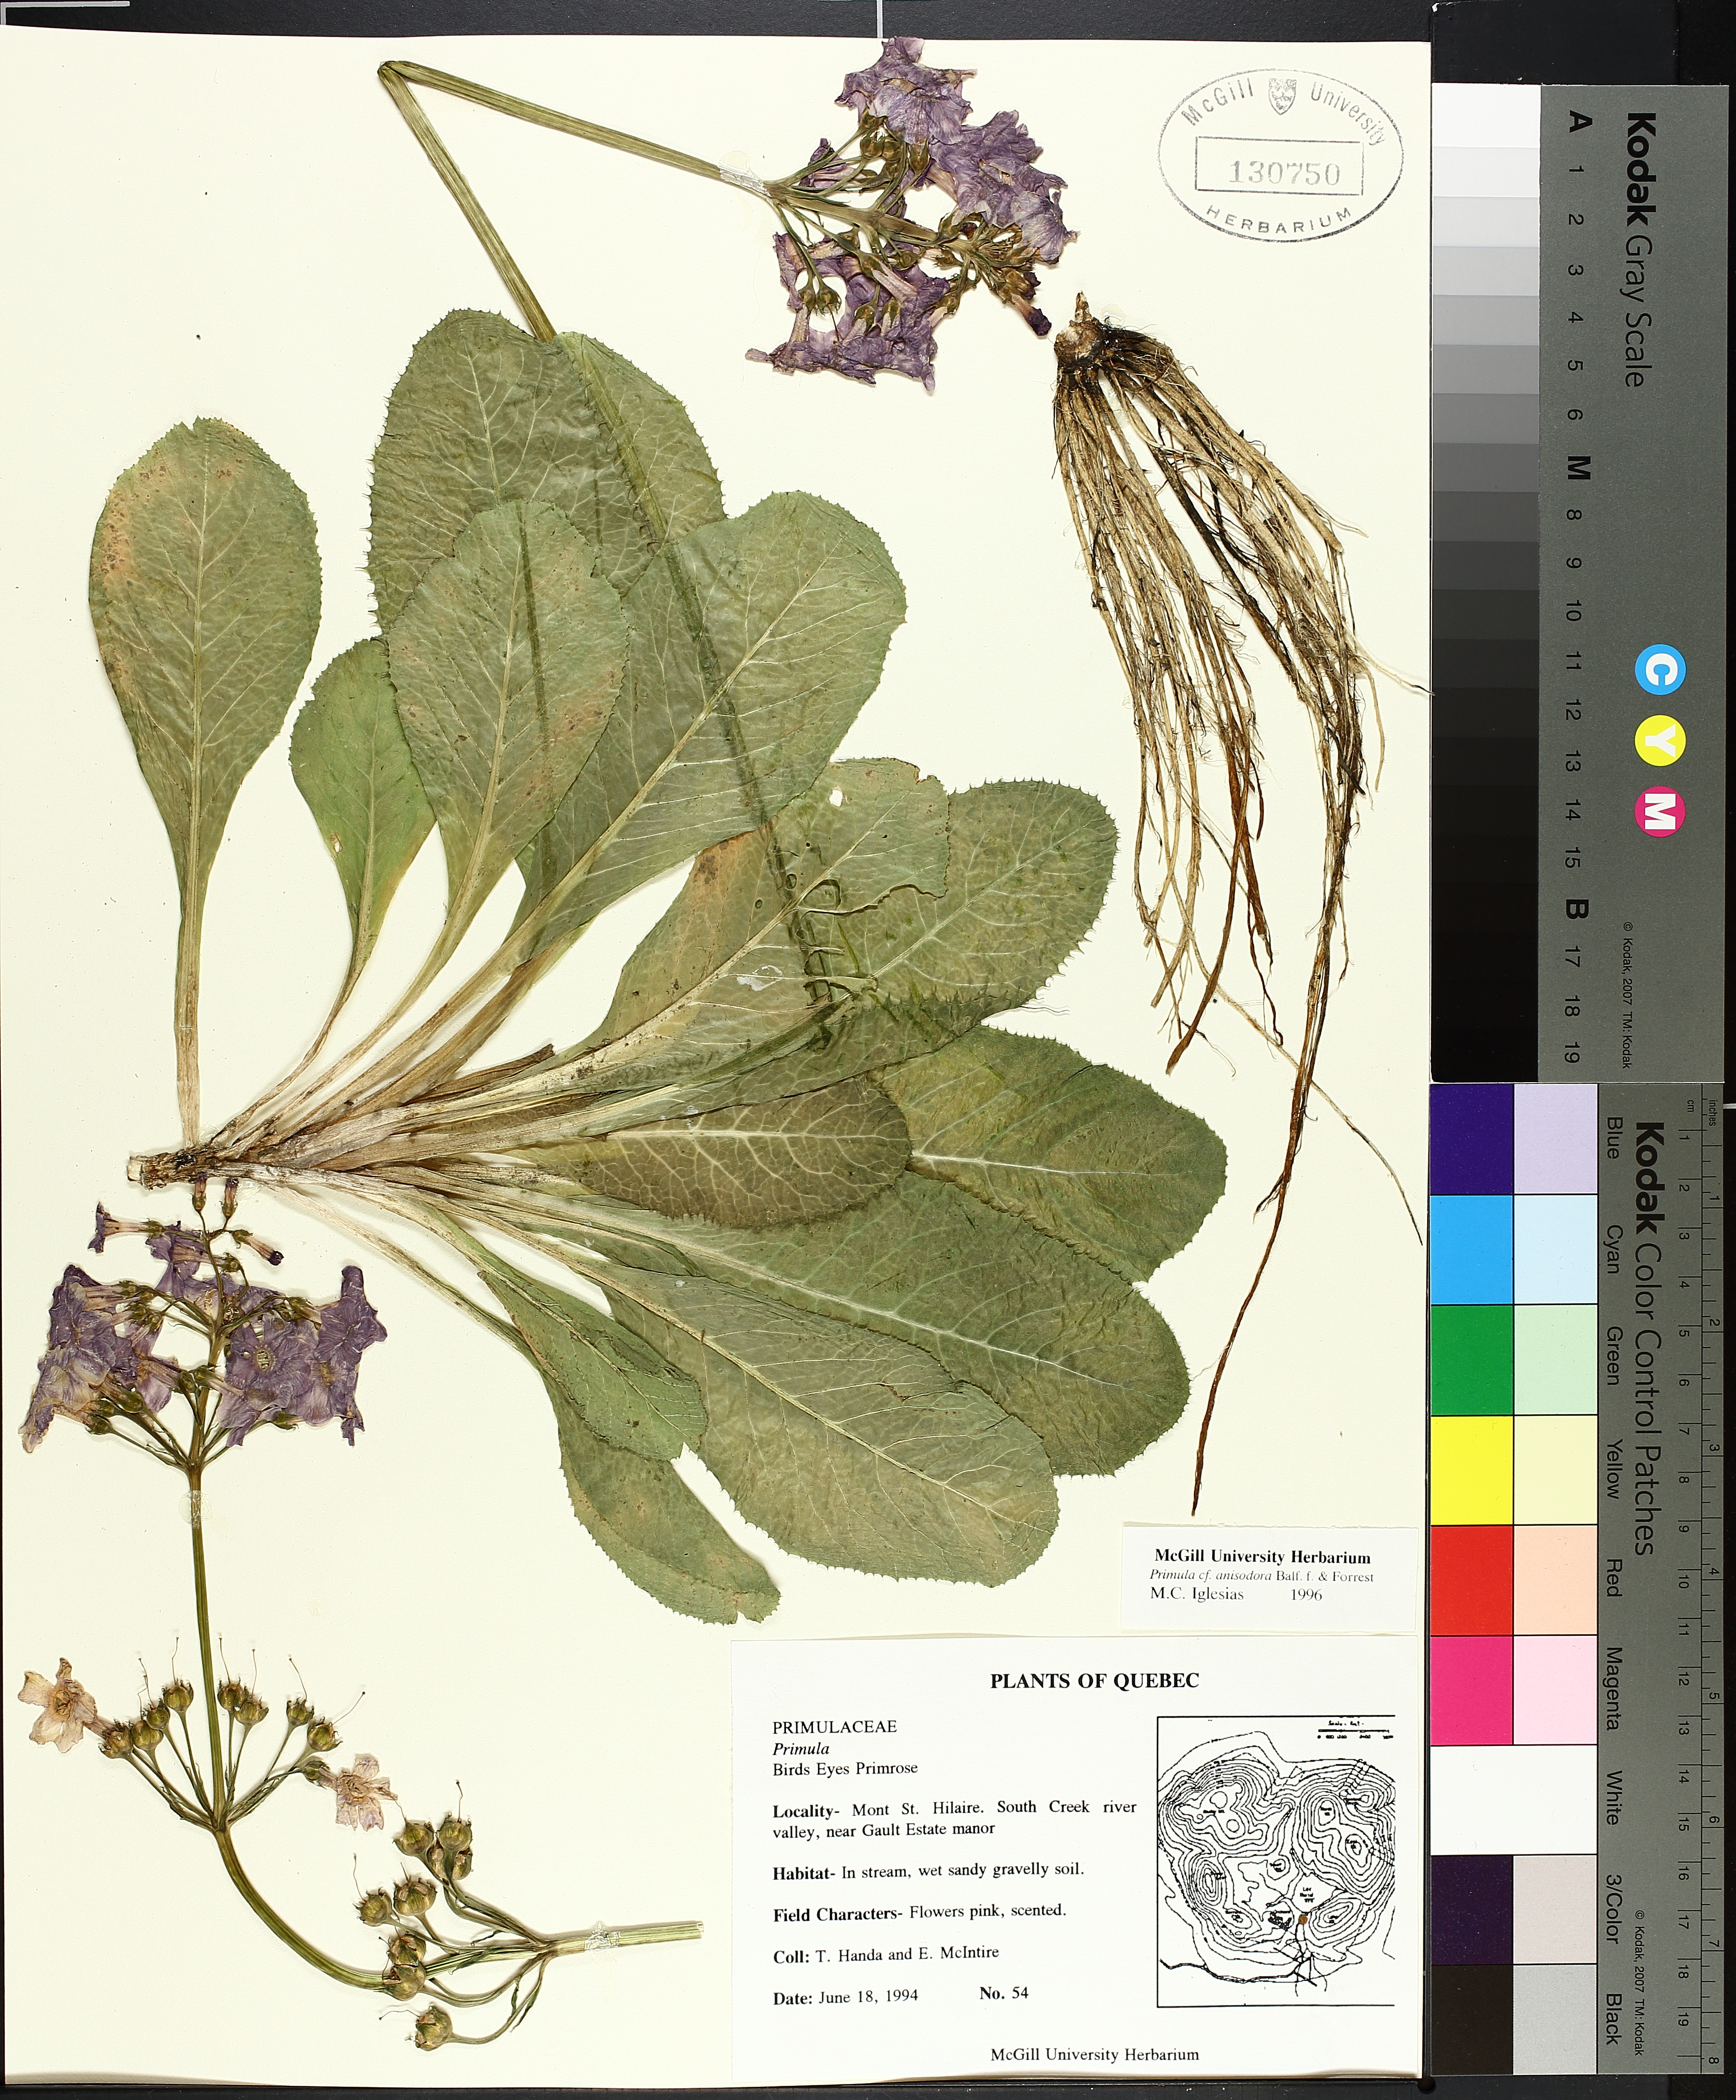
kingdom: Plantae
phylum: Tracheophyta
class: Liliopsida
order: Poales
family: Cyperaceae
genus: Carex
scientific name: Carex rostrata
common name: Bottle sedge
